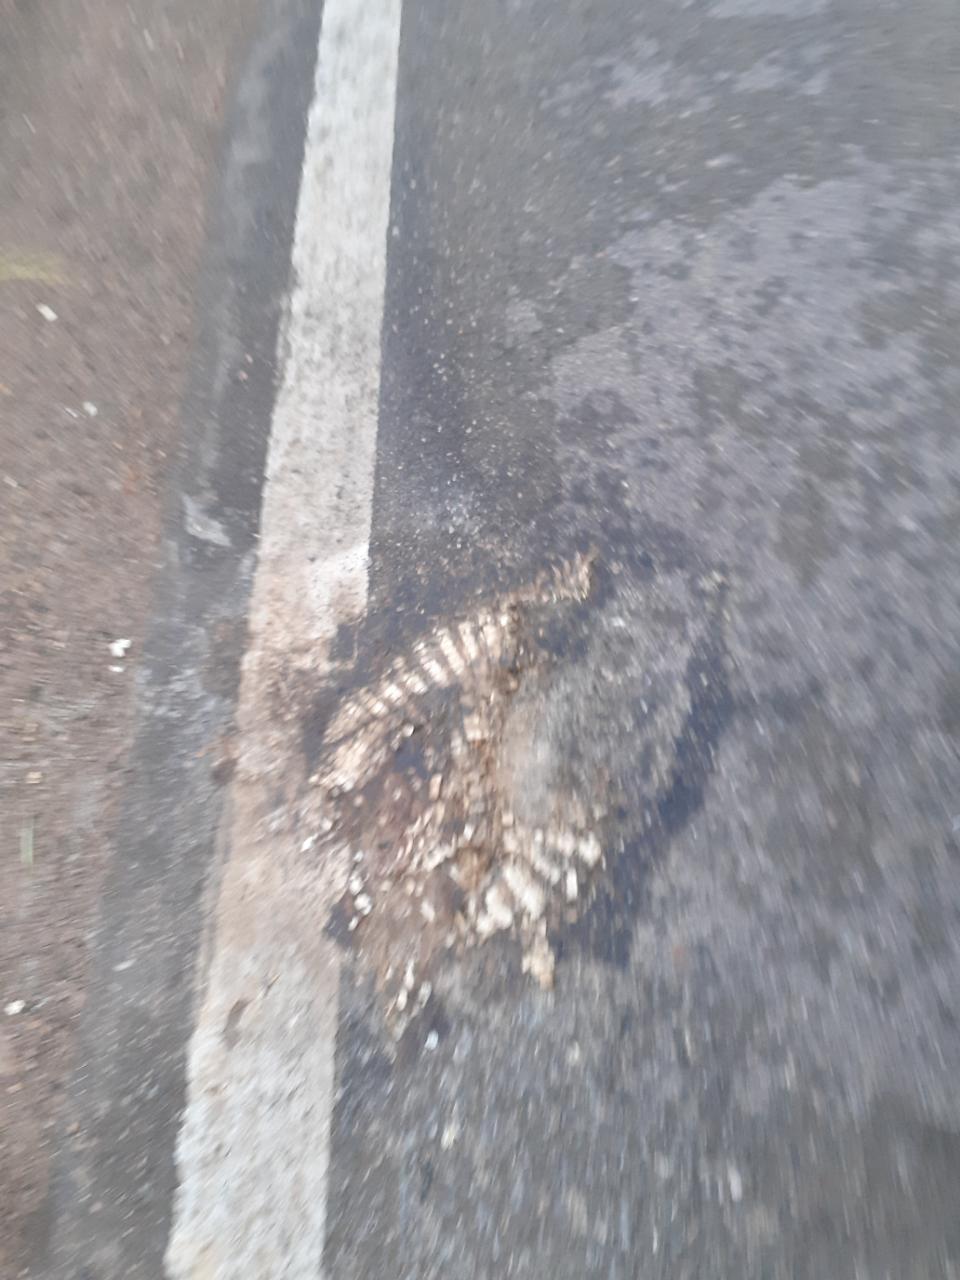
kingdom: Animalia
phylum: Chordata
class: Mammalia
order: Cingulata
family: Dasypodidae
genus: Dasypus
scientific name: Dasypus novemcinctus
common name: Nine-banded armadillo
